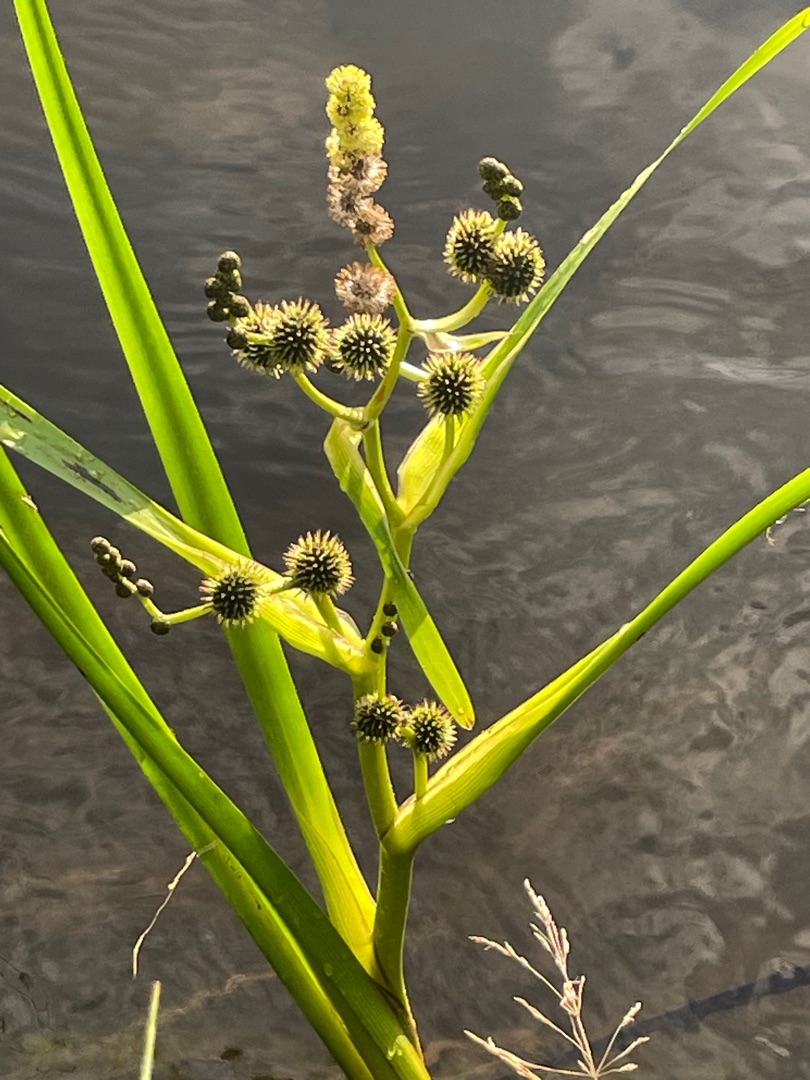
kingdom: Plantae
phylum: Tracheophyta
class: Liliopsida
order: Poales
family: Typhaceae
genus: Sparganium
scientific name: Sparganium erectum
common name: Grenet pindsvineknop
